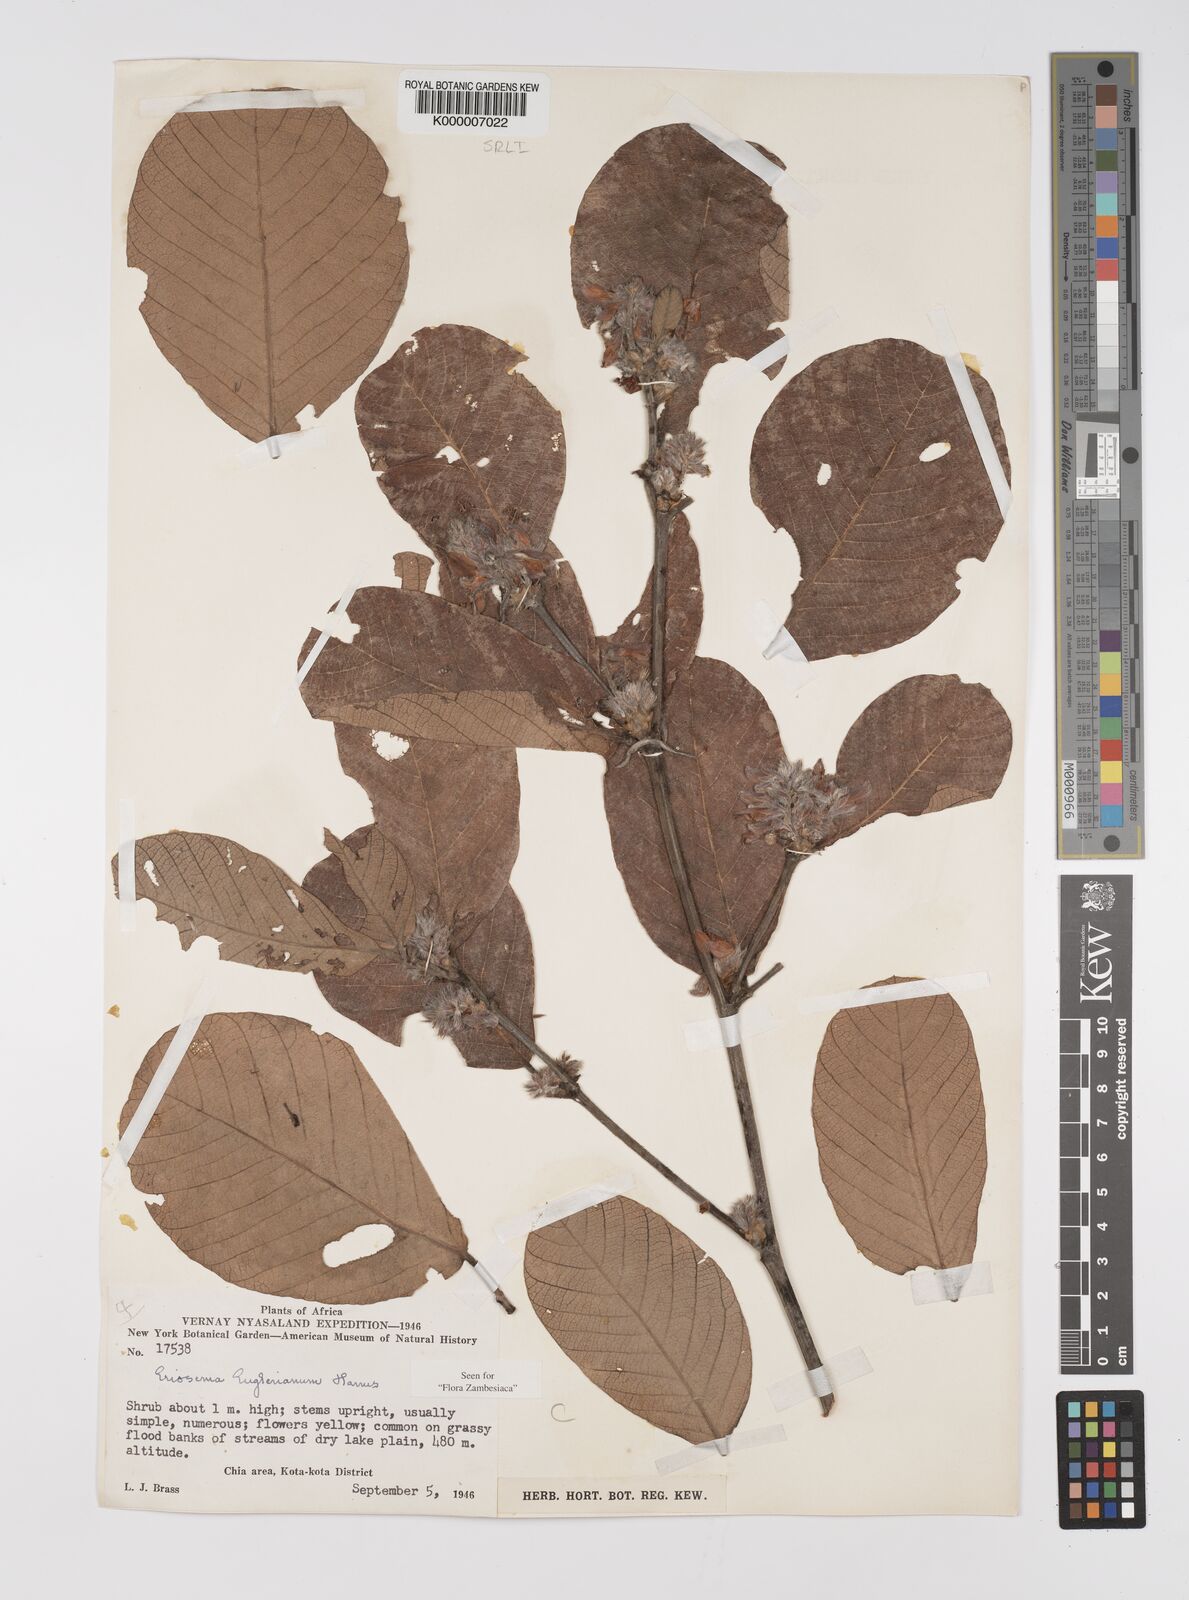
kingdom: Plantae
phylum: Tracheophyta
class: Magnoliopsida
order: Fabales
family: Fabaceae
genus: Eriosema
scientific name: Eriosema englerianum
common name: Blue bush
